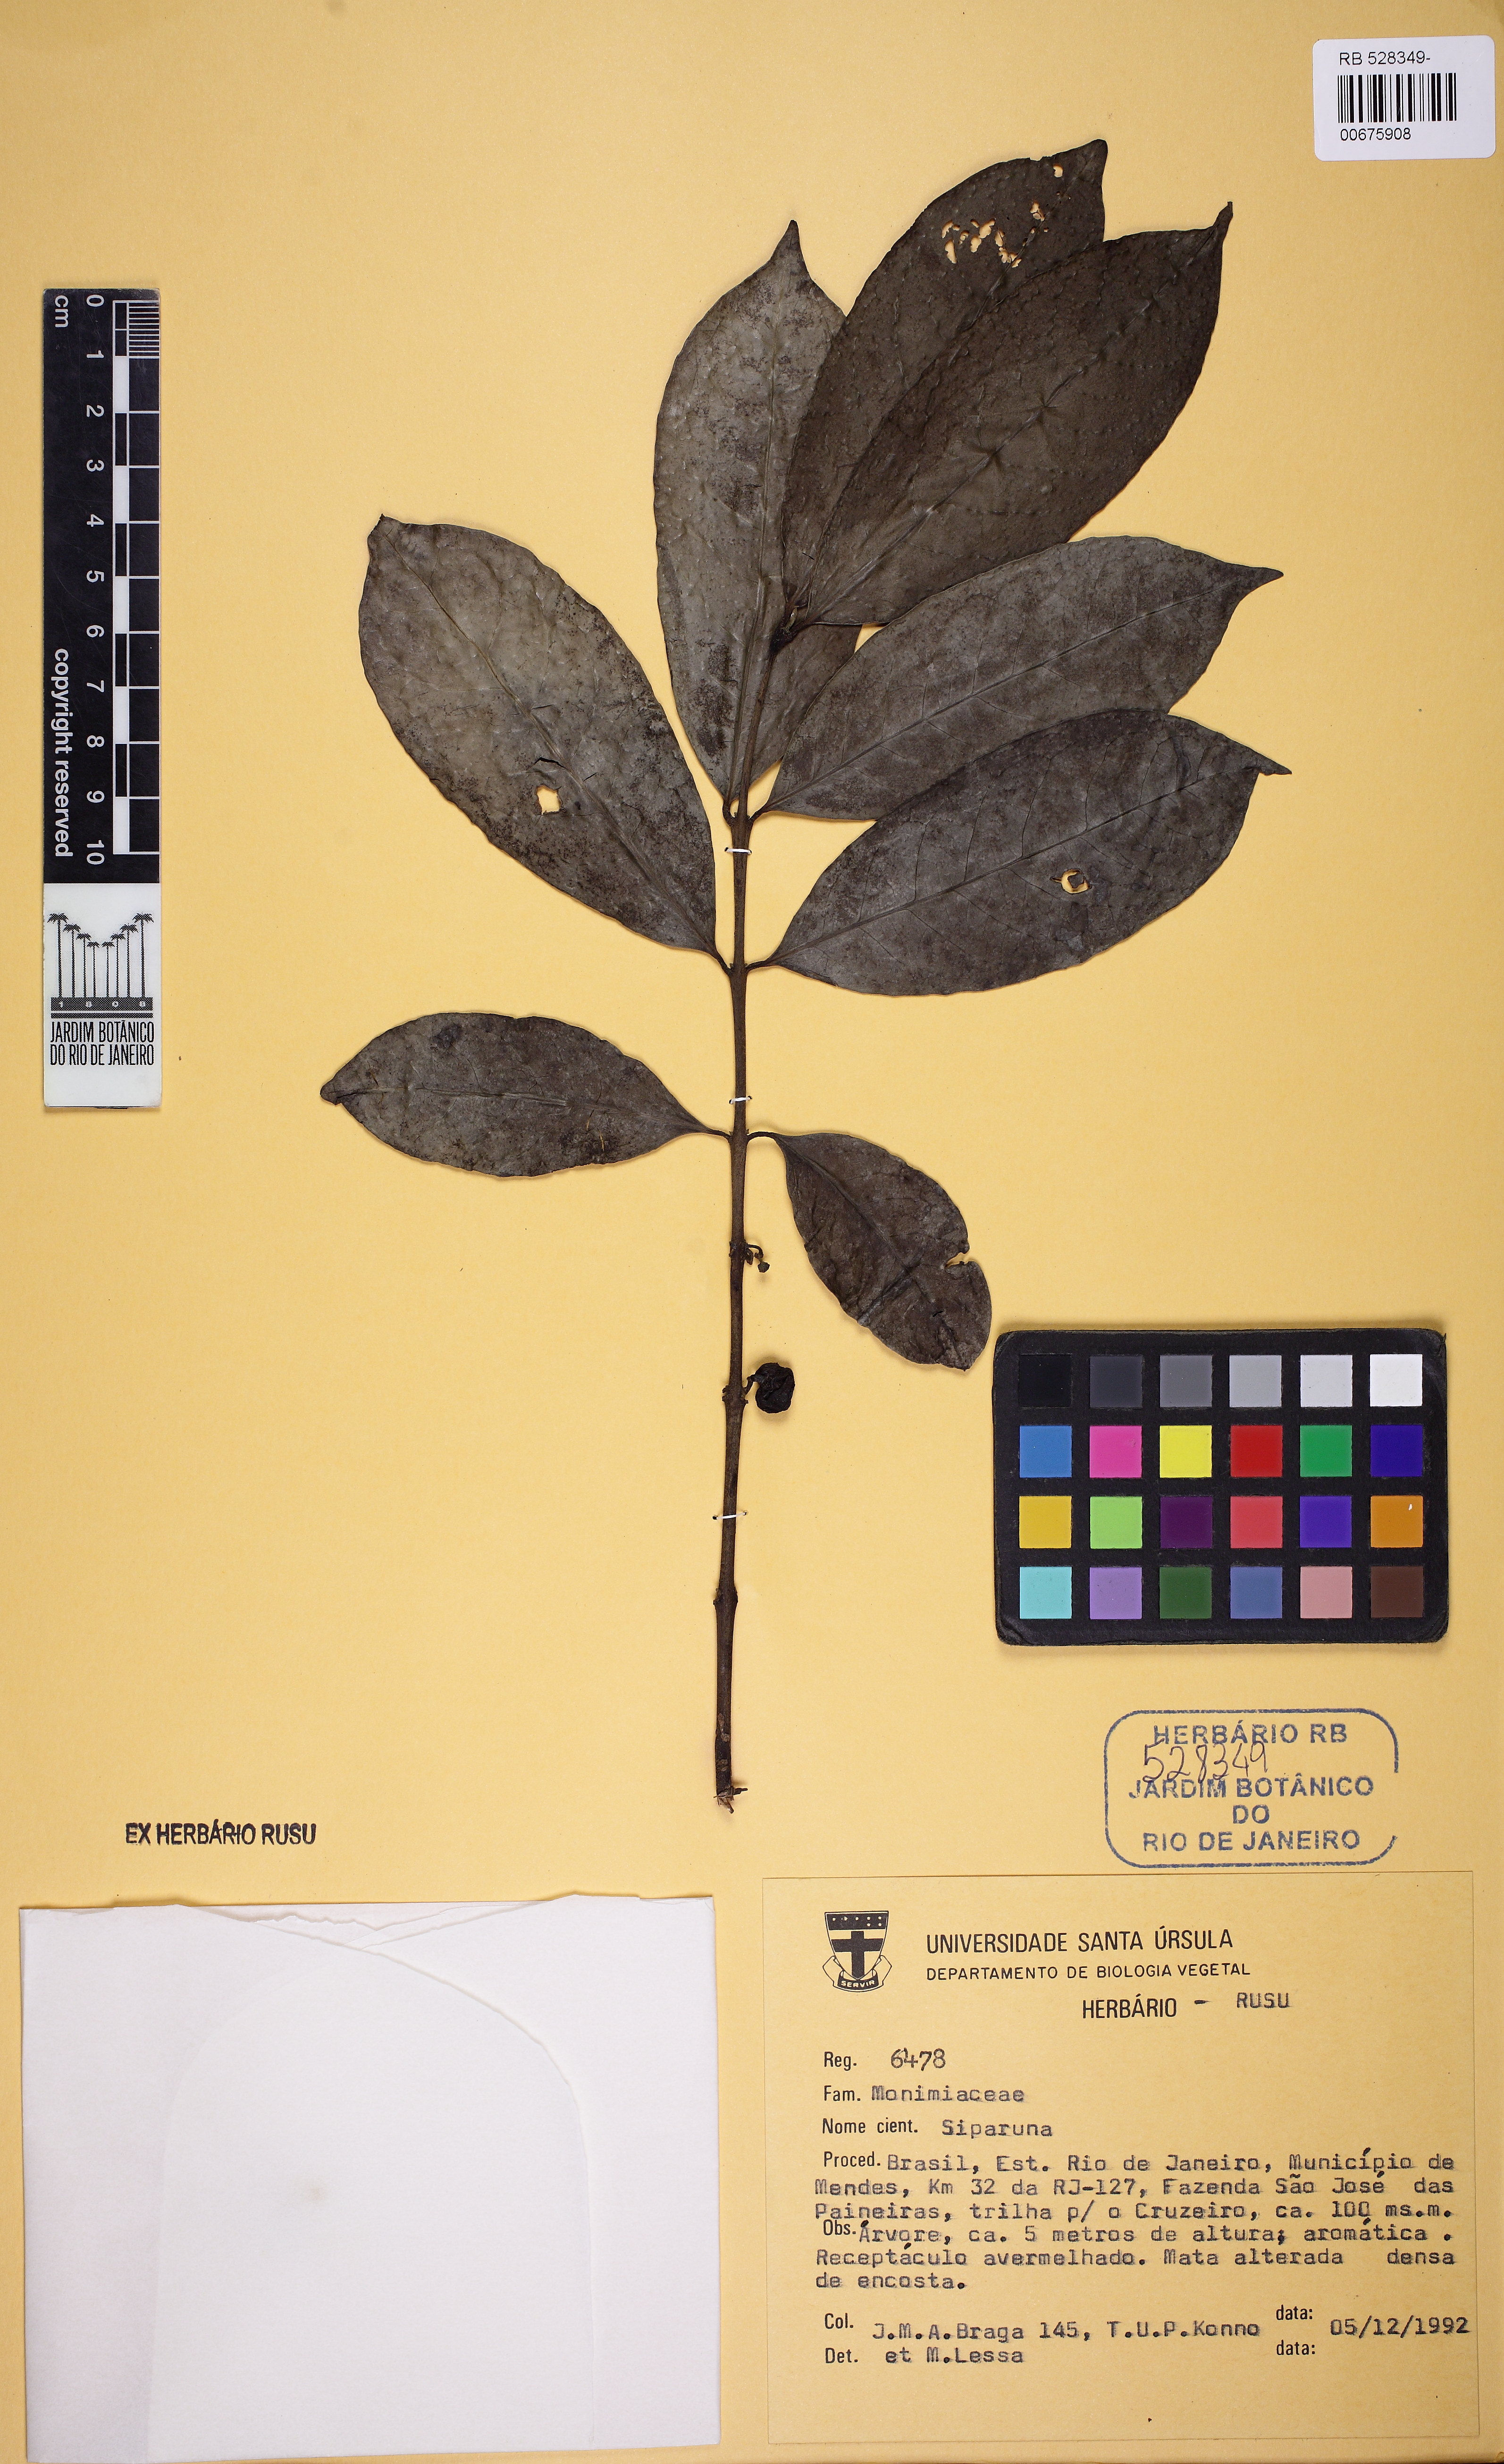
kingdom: Plantae
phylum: Tracheophyta
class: Magnoliopsida
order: Laurales
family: Siparunaceae
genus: Siparuna
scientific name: Siparuna guianensis
